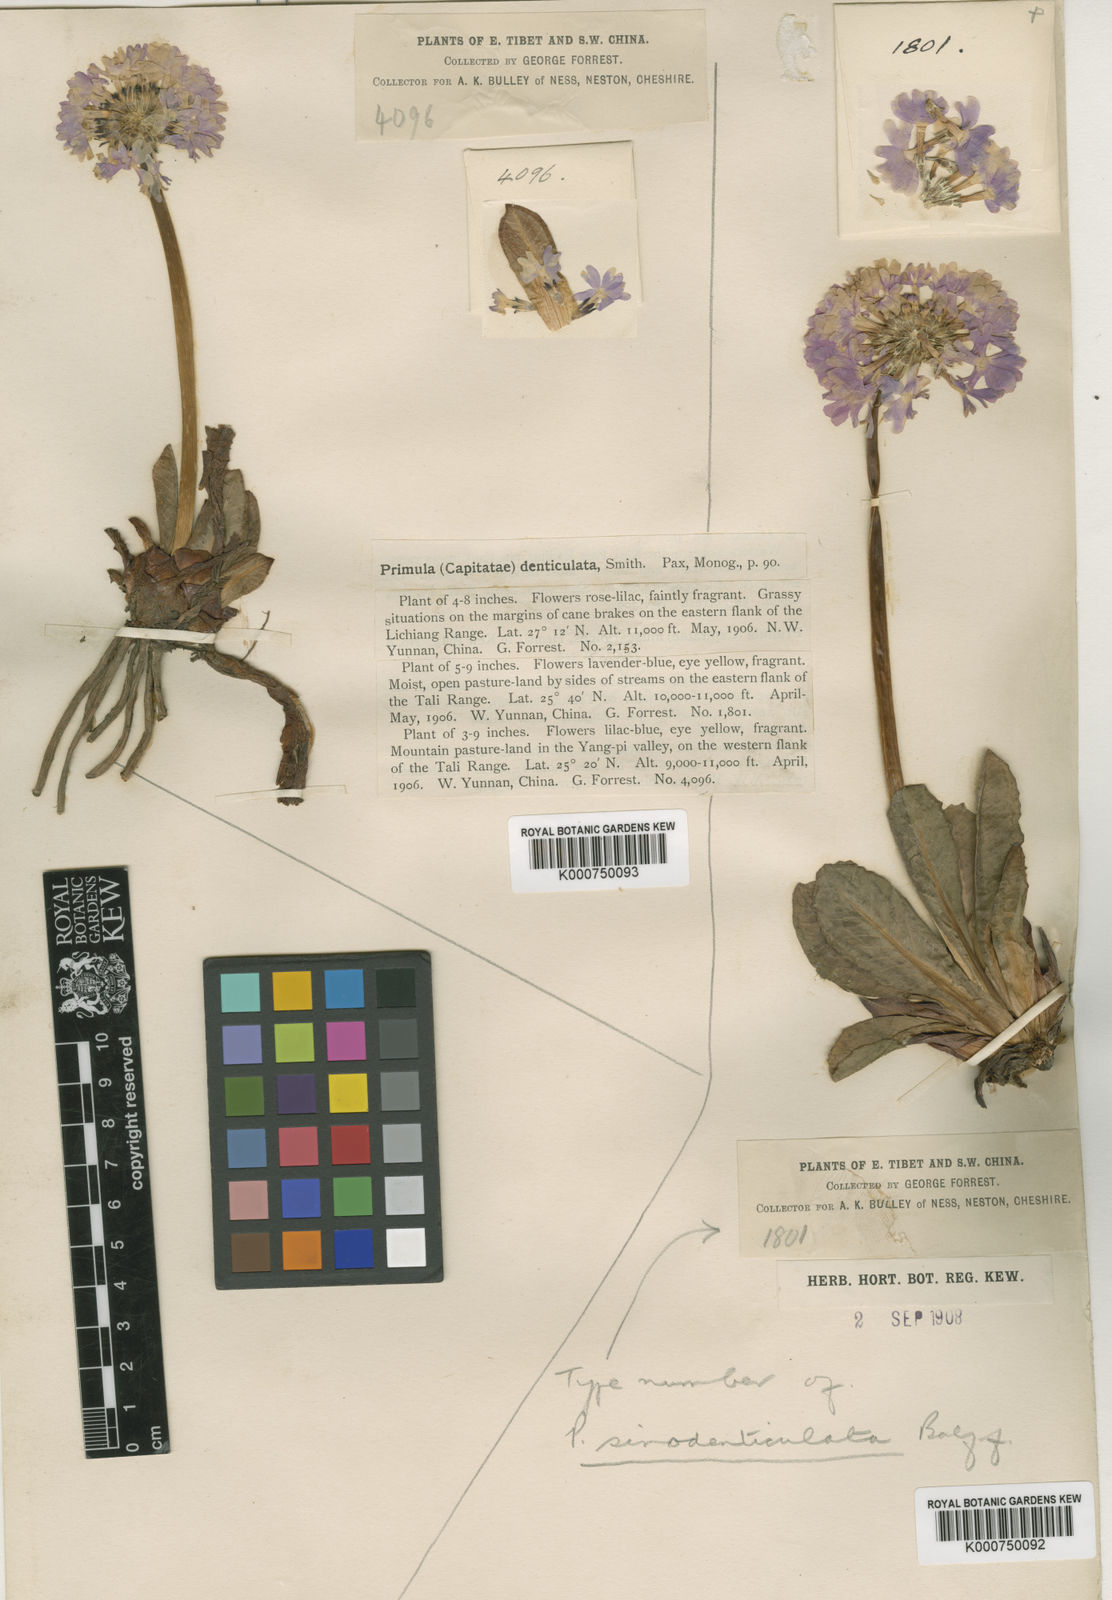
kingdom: Plantae
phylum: Tracheophyta
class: Magnoliopsida
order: Ericales
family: Primulaceae
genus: Primula
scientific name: Primula denticulata
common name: Drumstick primula
